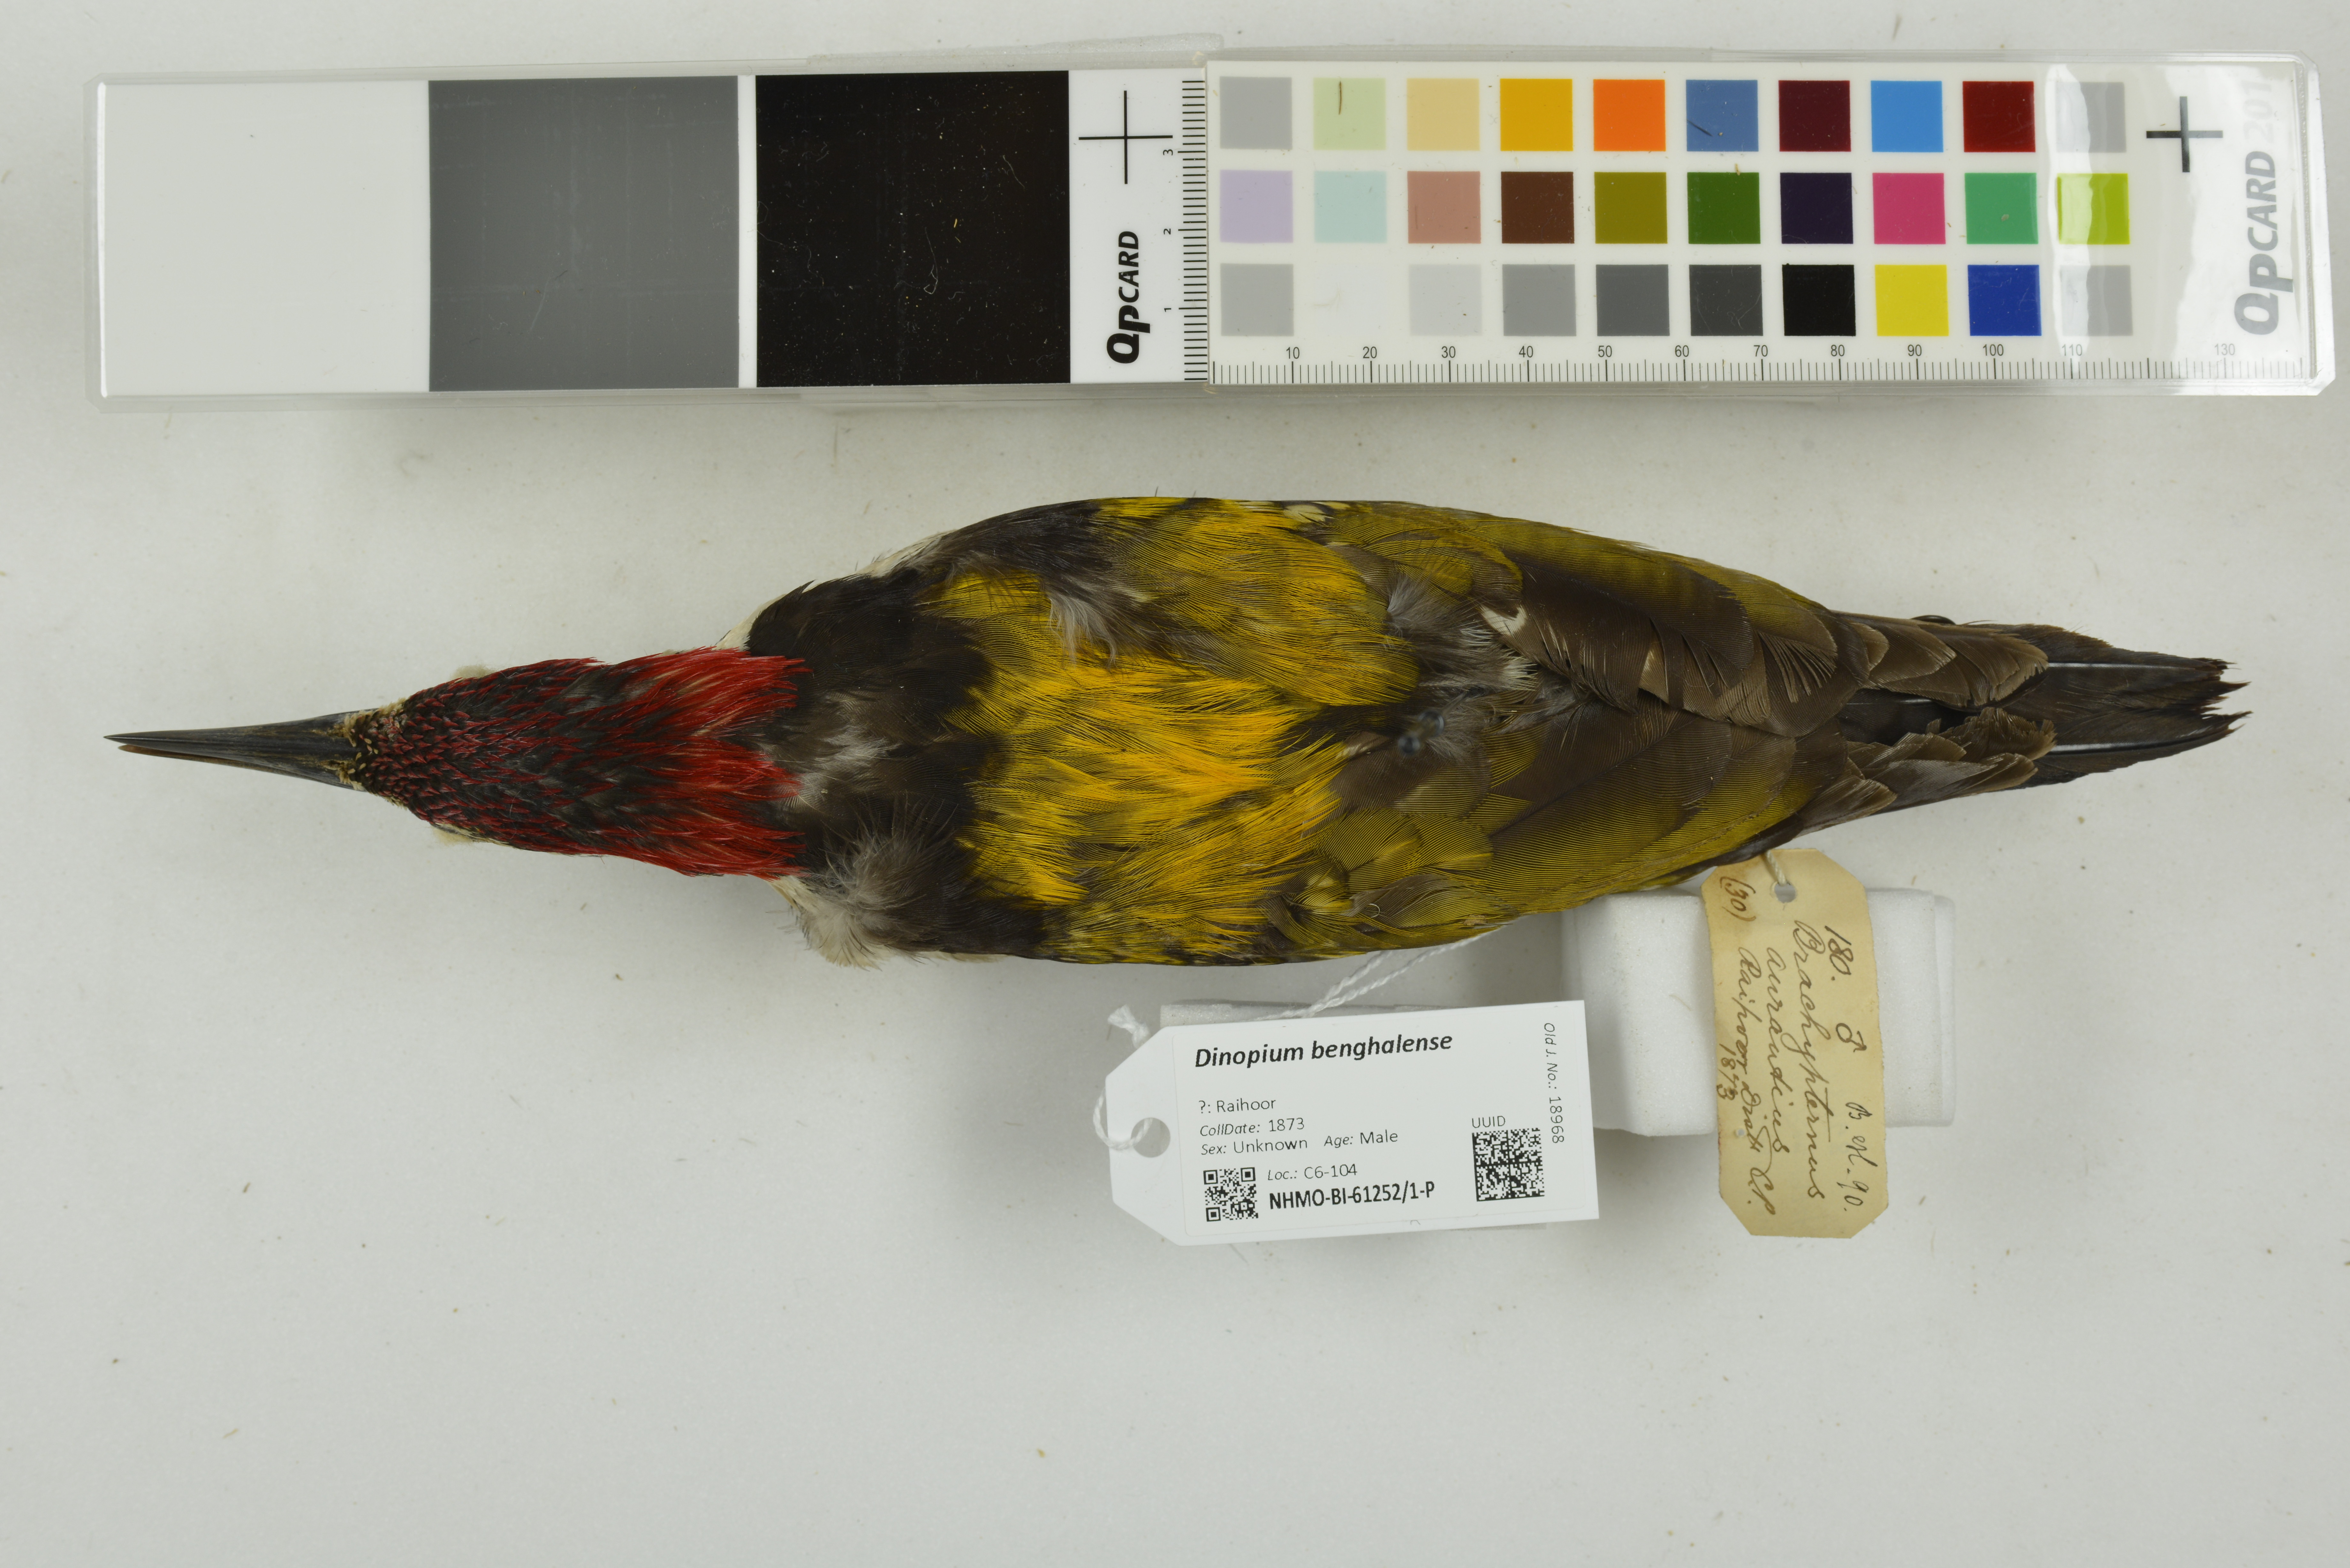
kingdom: Animalia
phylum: Chordata
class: Aves
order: Piciformes
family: Picidae
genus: Dinopium
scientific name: Dinopium benghalense
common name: Black-rumped flameback
